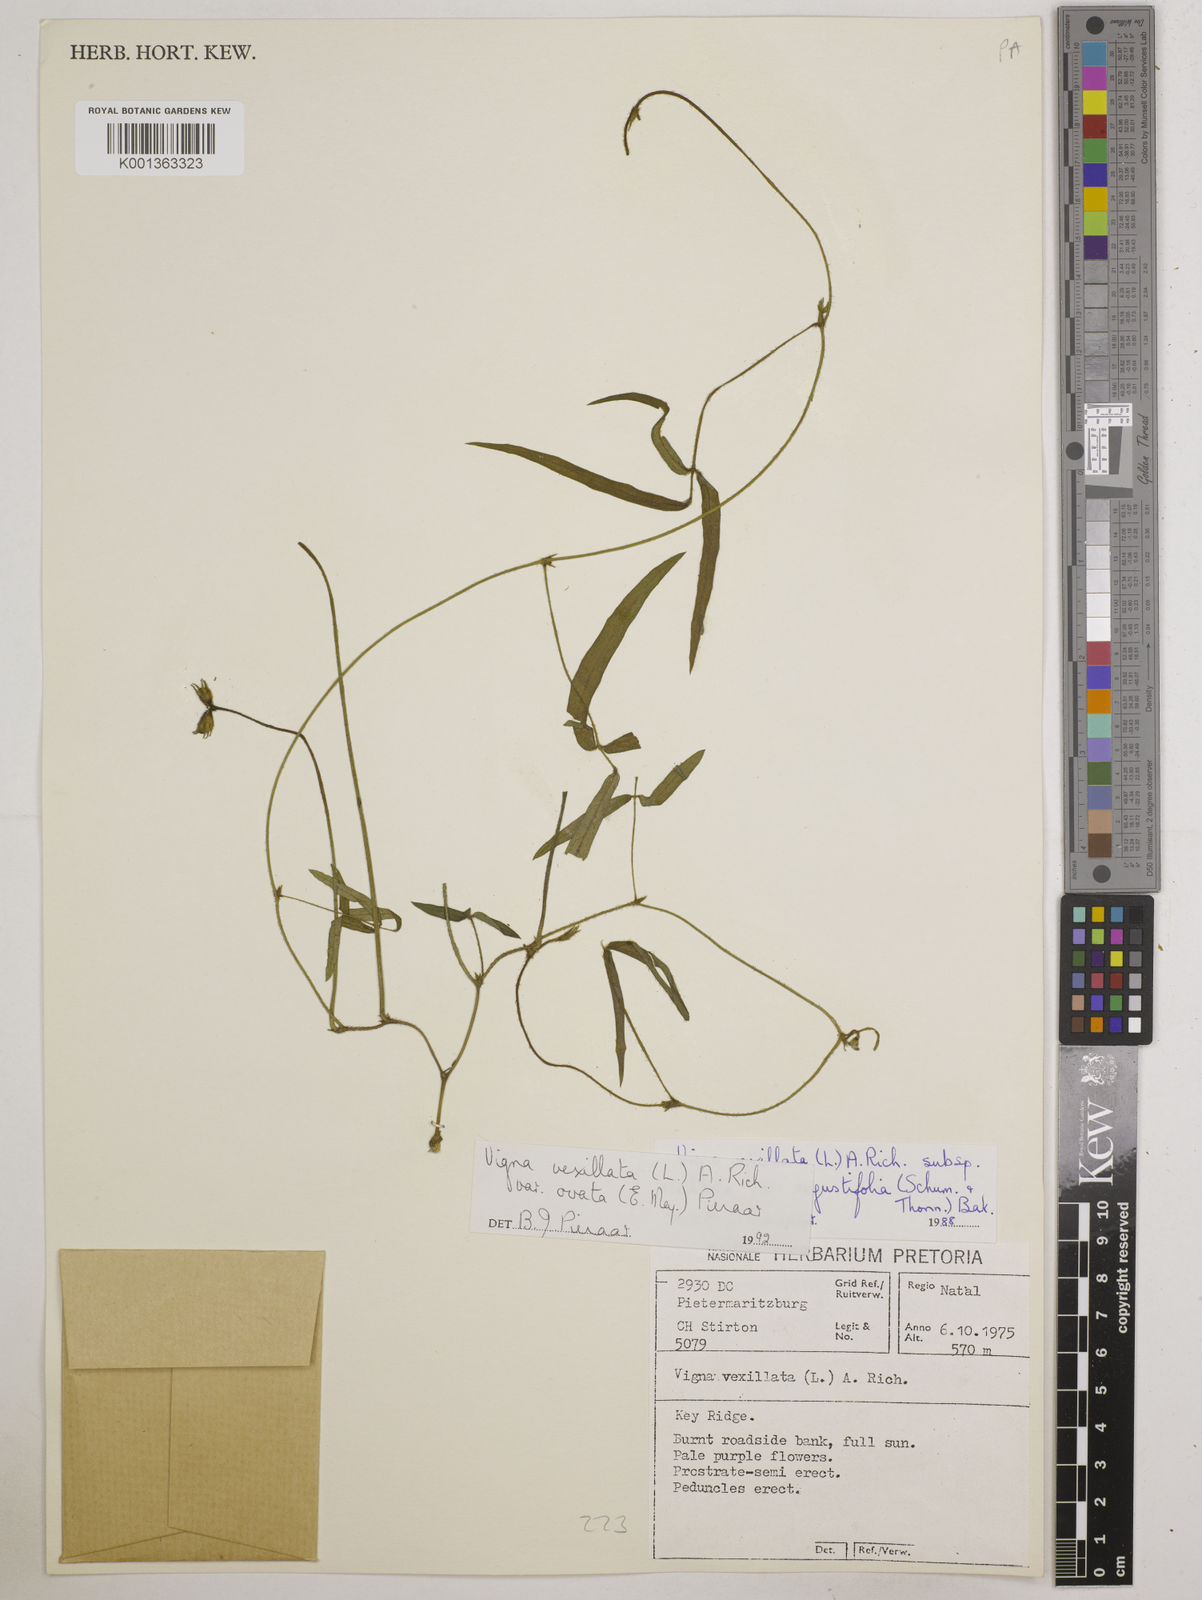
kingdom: Plantae
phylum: Tracheophyta
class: Magnoliopsida
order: Fabales
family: Fabaceae
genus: Vigna
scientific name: Vigna
